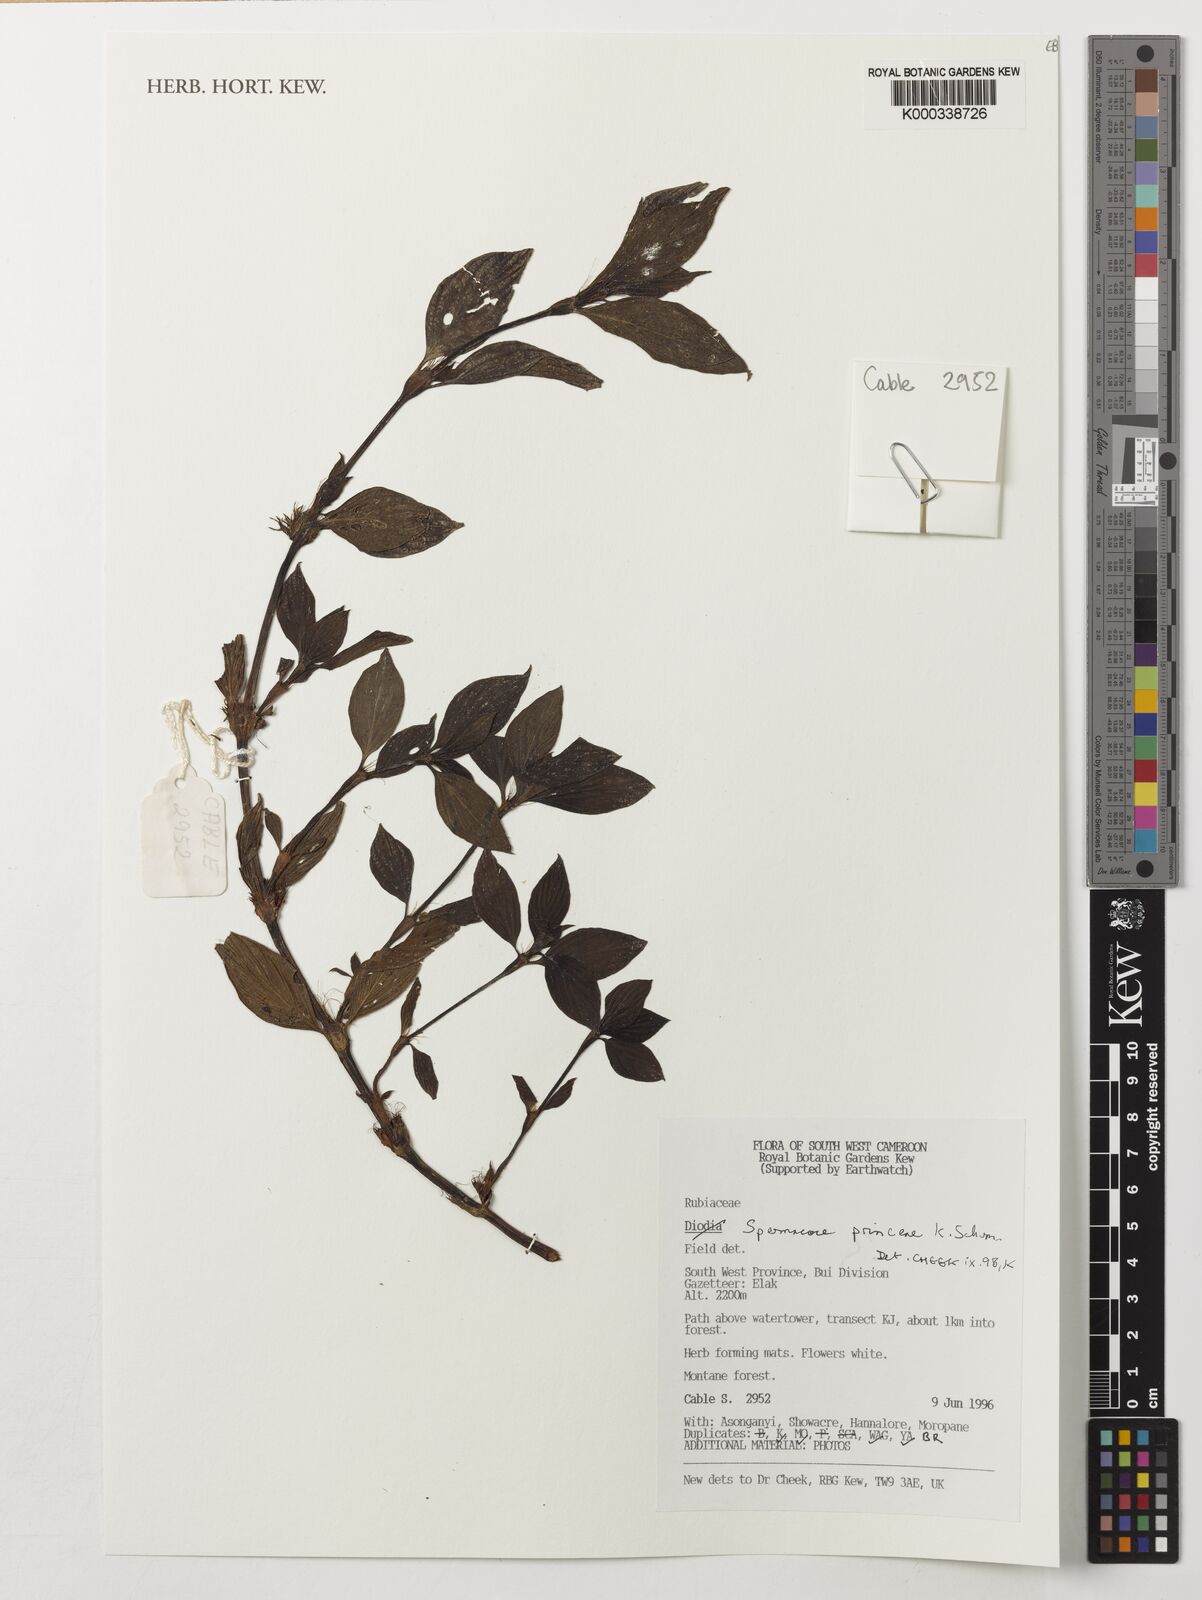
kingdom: Plantae
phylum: Tracheophyta
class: Magnoliopsida
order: Gentianales
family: Rubiaceae
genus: Spermacoce
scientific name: Spermacoce princeae
